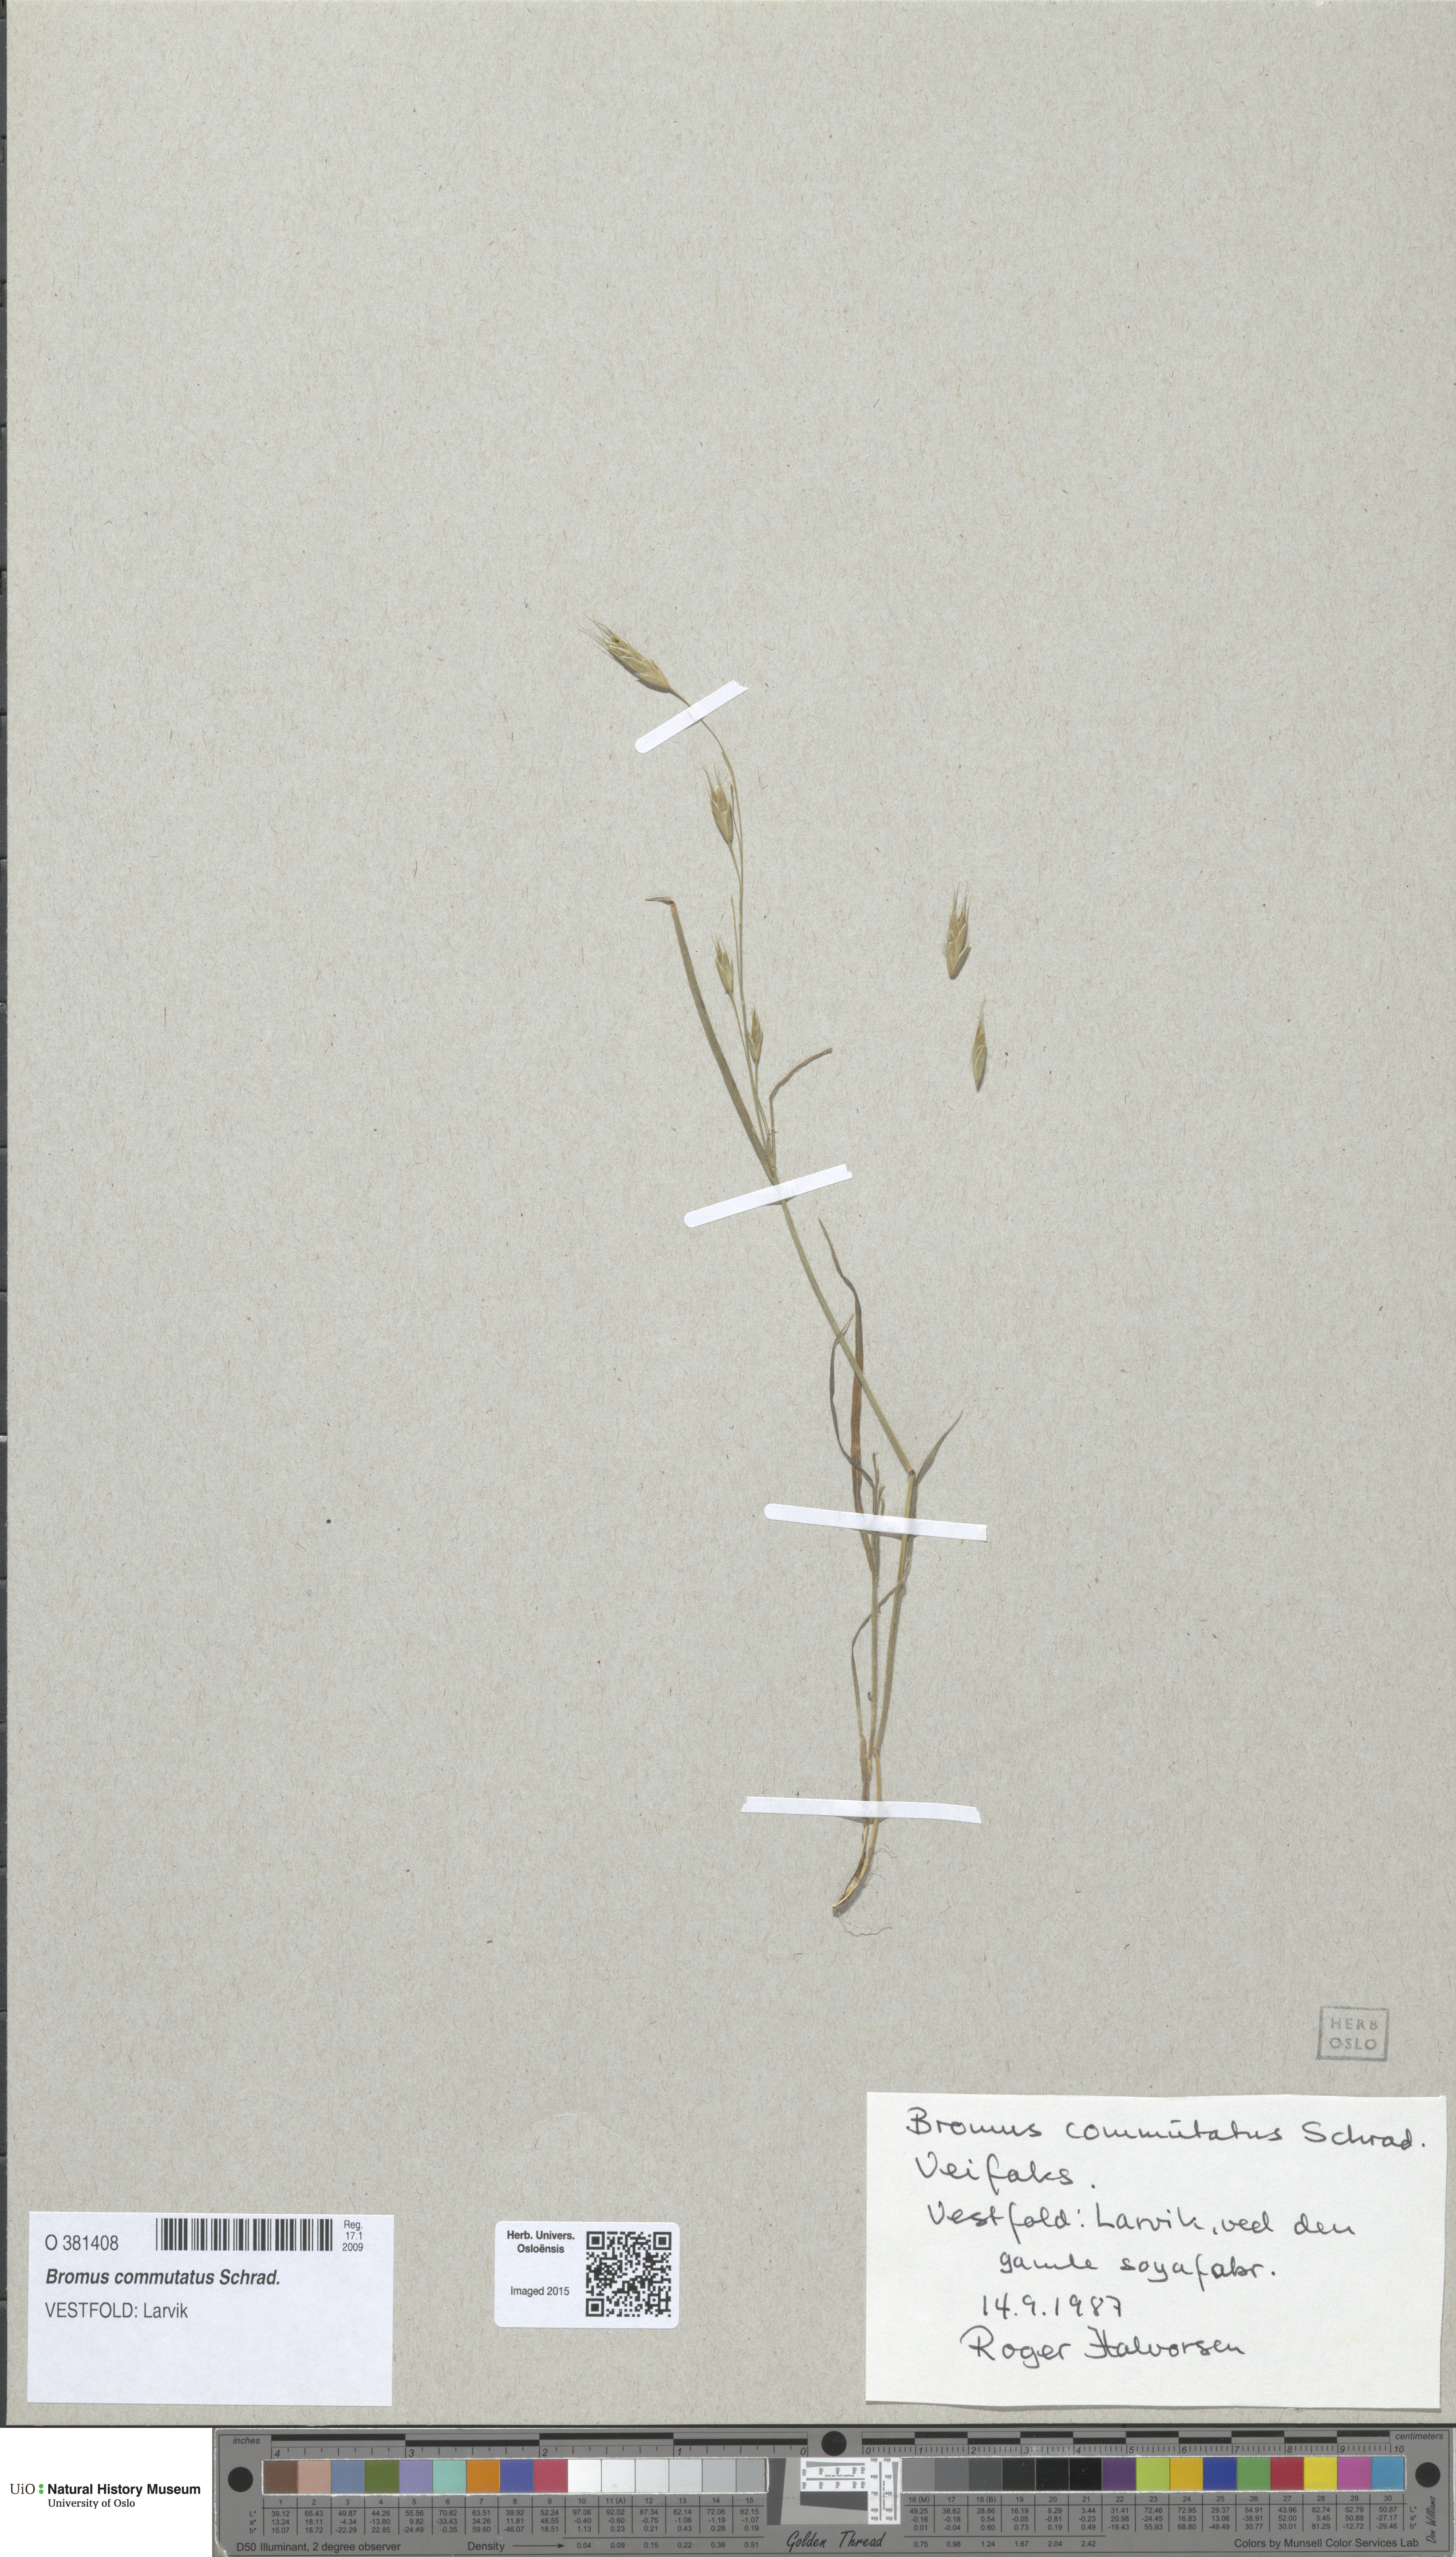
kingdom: Plantae
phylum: Tracheophyta
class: Liliopsida
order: Poales
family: Poaceae
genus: Bromus
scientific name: Bromus commutatus
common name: Meadow brome
